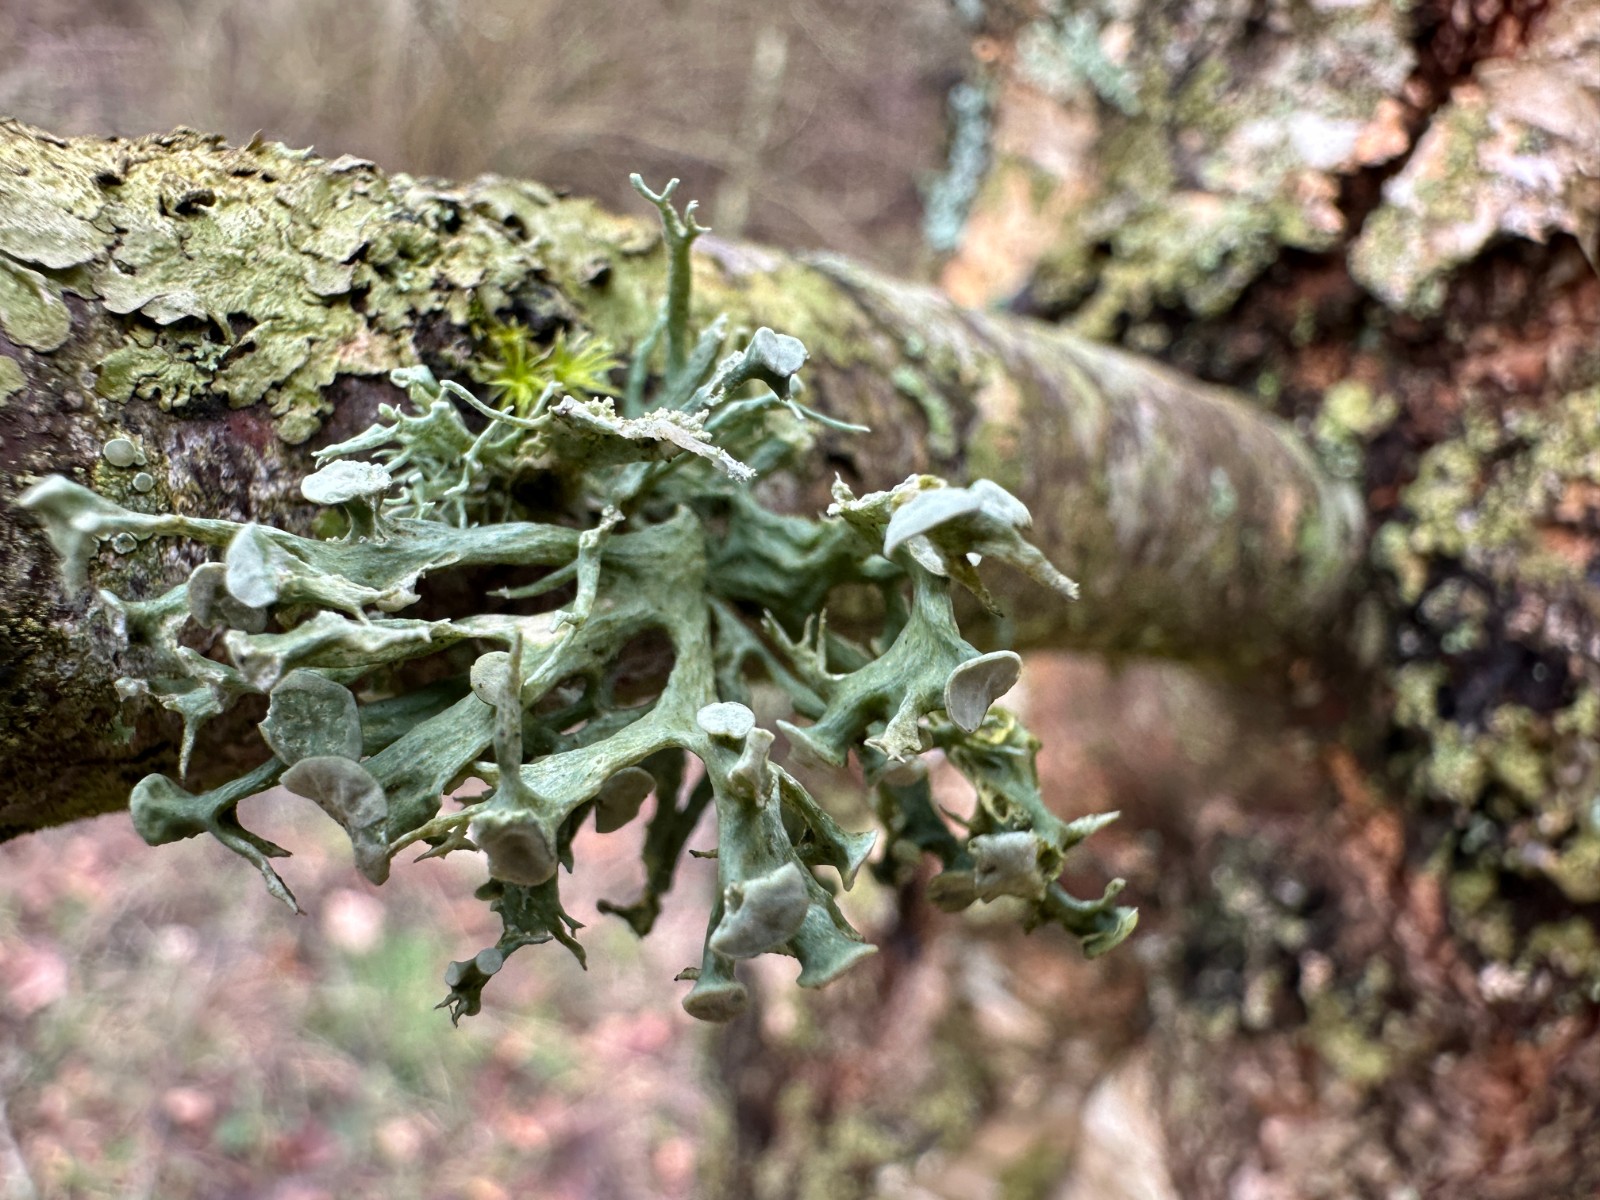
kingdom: Fungi
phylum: Ascomycota
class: Lecanoromycetes
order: Lecanorales
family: Ramalinaceae
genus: Ramalina
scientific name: Ramalina fastigiata
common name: tue-grenlav
